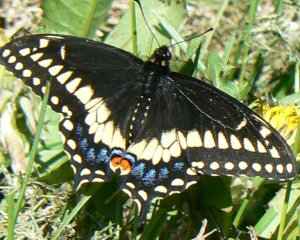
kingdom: Animalia
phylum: Arthropoda
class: Insecta
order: Lepidoptera
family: Papilionidae
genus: Papilio
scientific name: Papilio polyxenes
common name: Black Swallowtail
